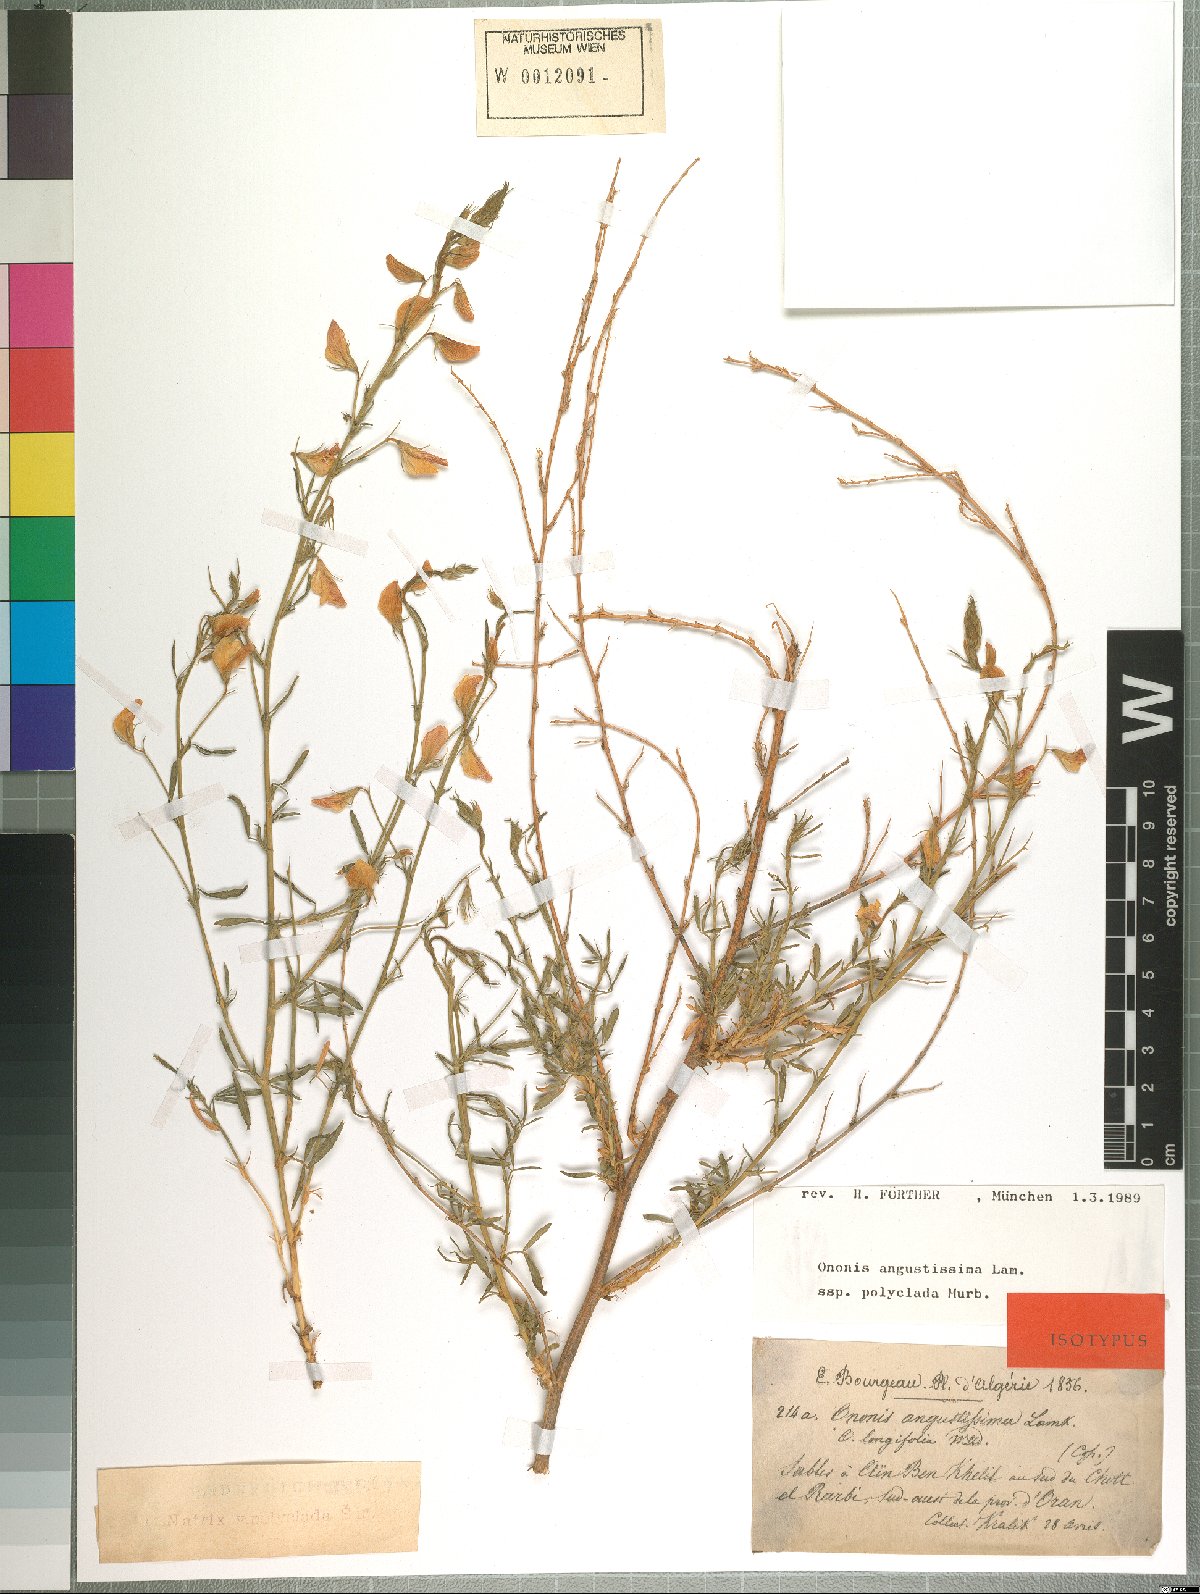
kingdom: Plantae
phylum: Tracheophyta
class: Magnoliopsida
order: Fabales
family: Fabaceae
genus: Ononis
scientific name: Ononis angustissima
